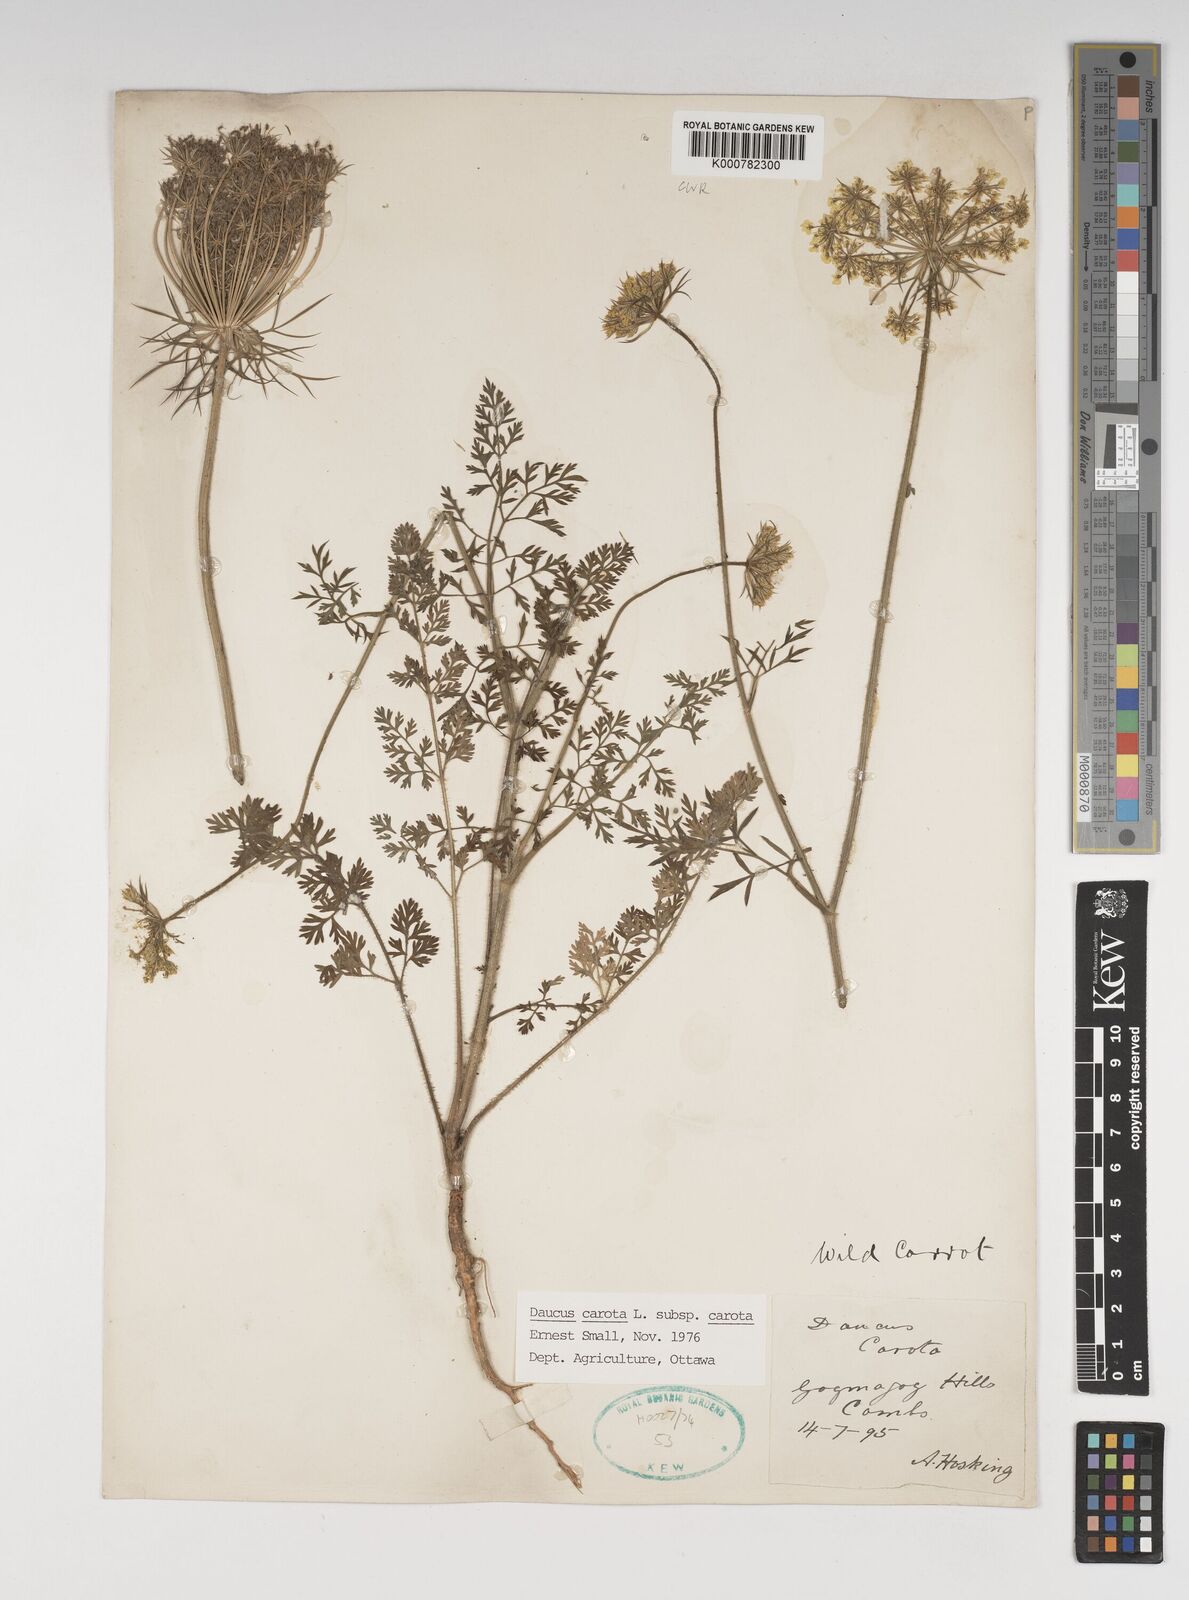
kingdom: Plantae
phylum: Tracheophyta
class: Magnoliopsida
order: Apiales
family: Apiaceae
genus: Daucus
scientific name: Daucus carota
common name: Wild carrot
